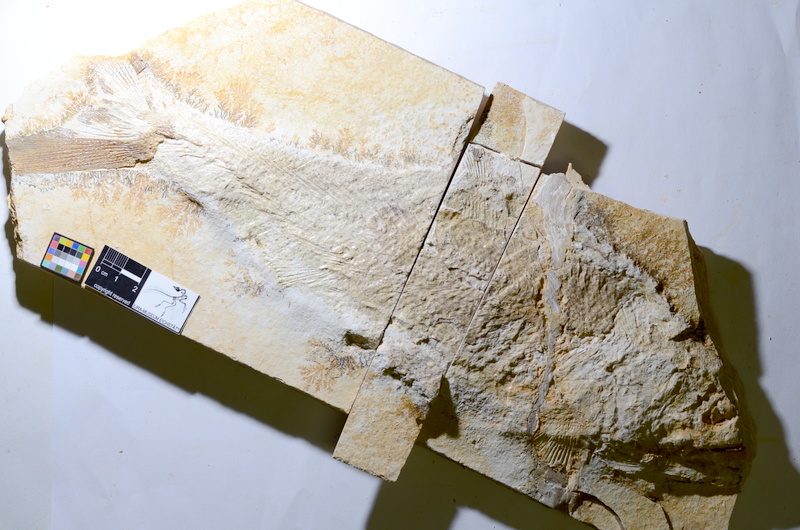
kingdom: Animalia
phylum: Chordata
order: Amiiformes
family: Caturidae
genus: Caturus
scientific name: Caturus
